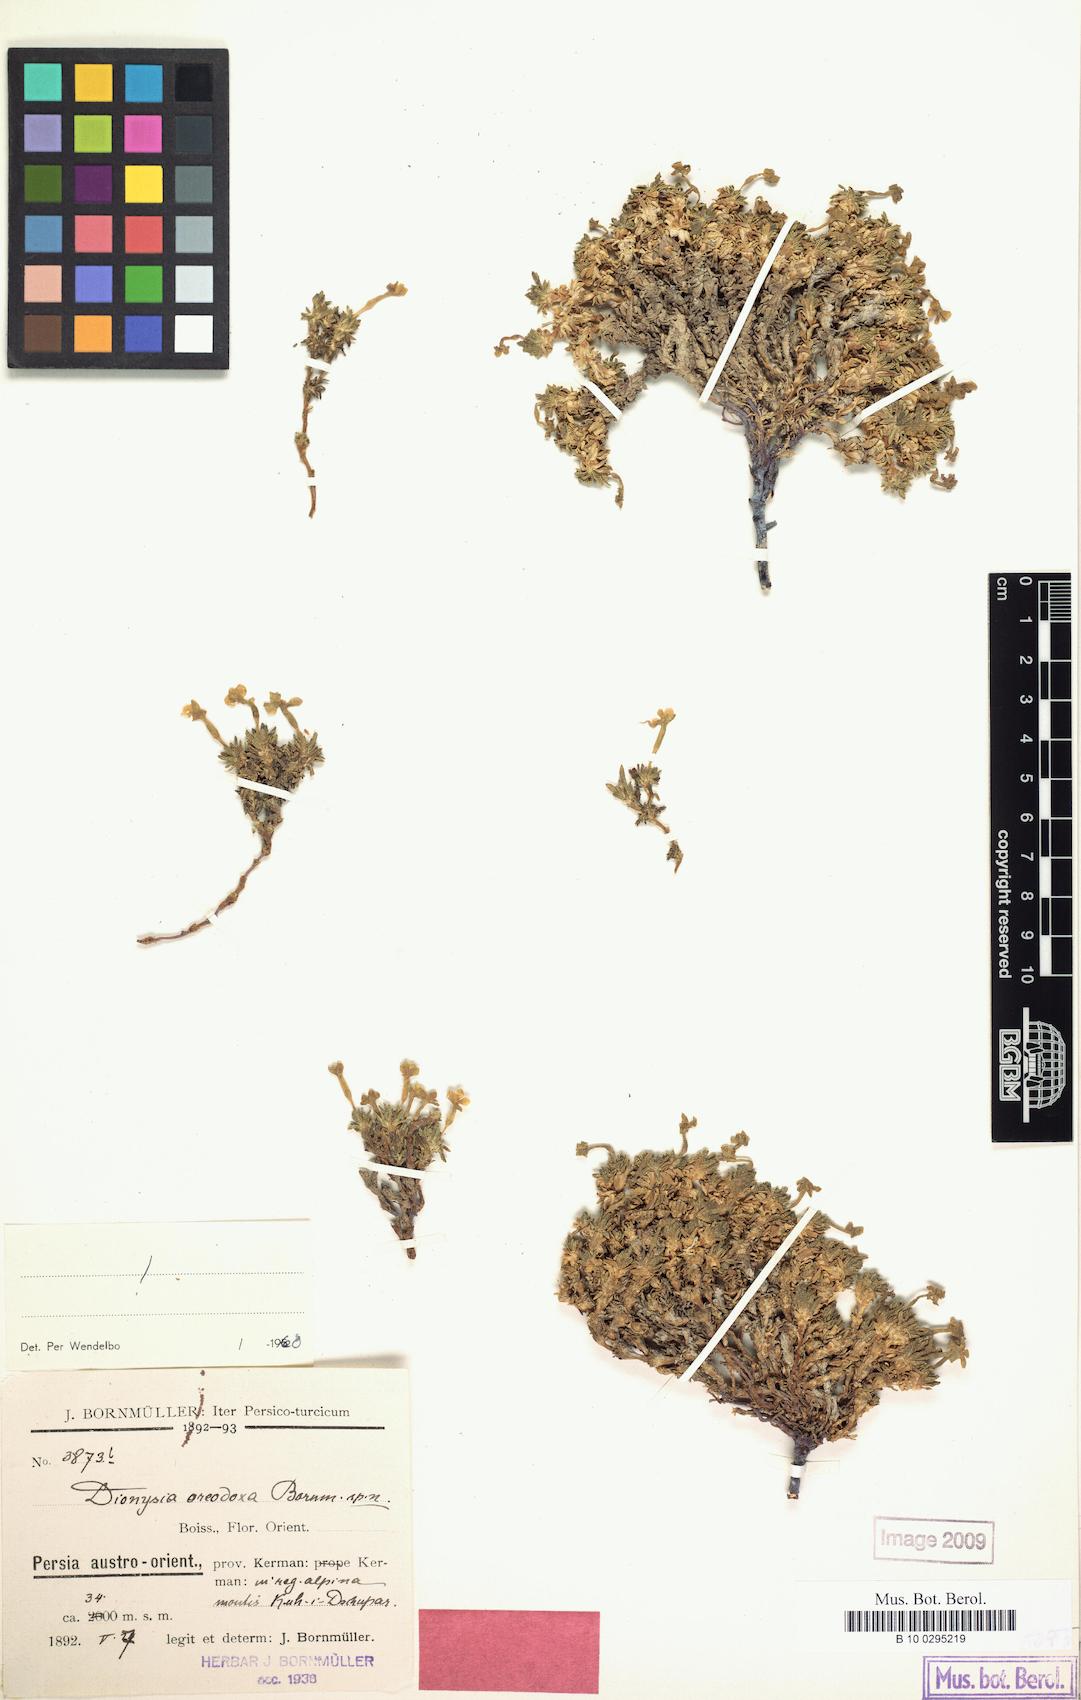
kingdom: Plantae
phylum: Tracheophyta
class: Magnoliopsida
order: Ericales
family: Primulaceae
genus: Dionysia
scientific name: Dionysia oreodoxa
